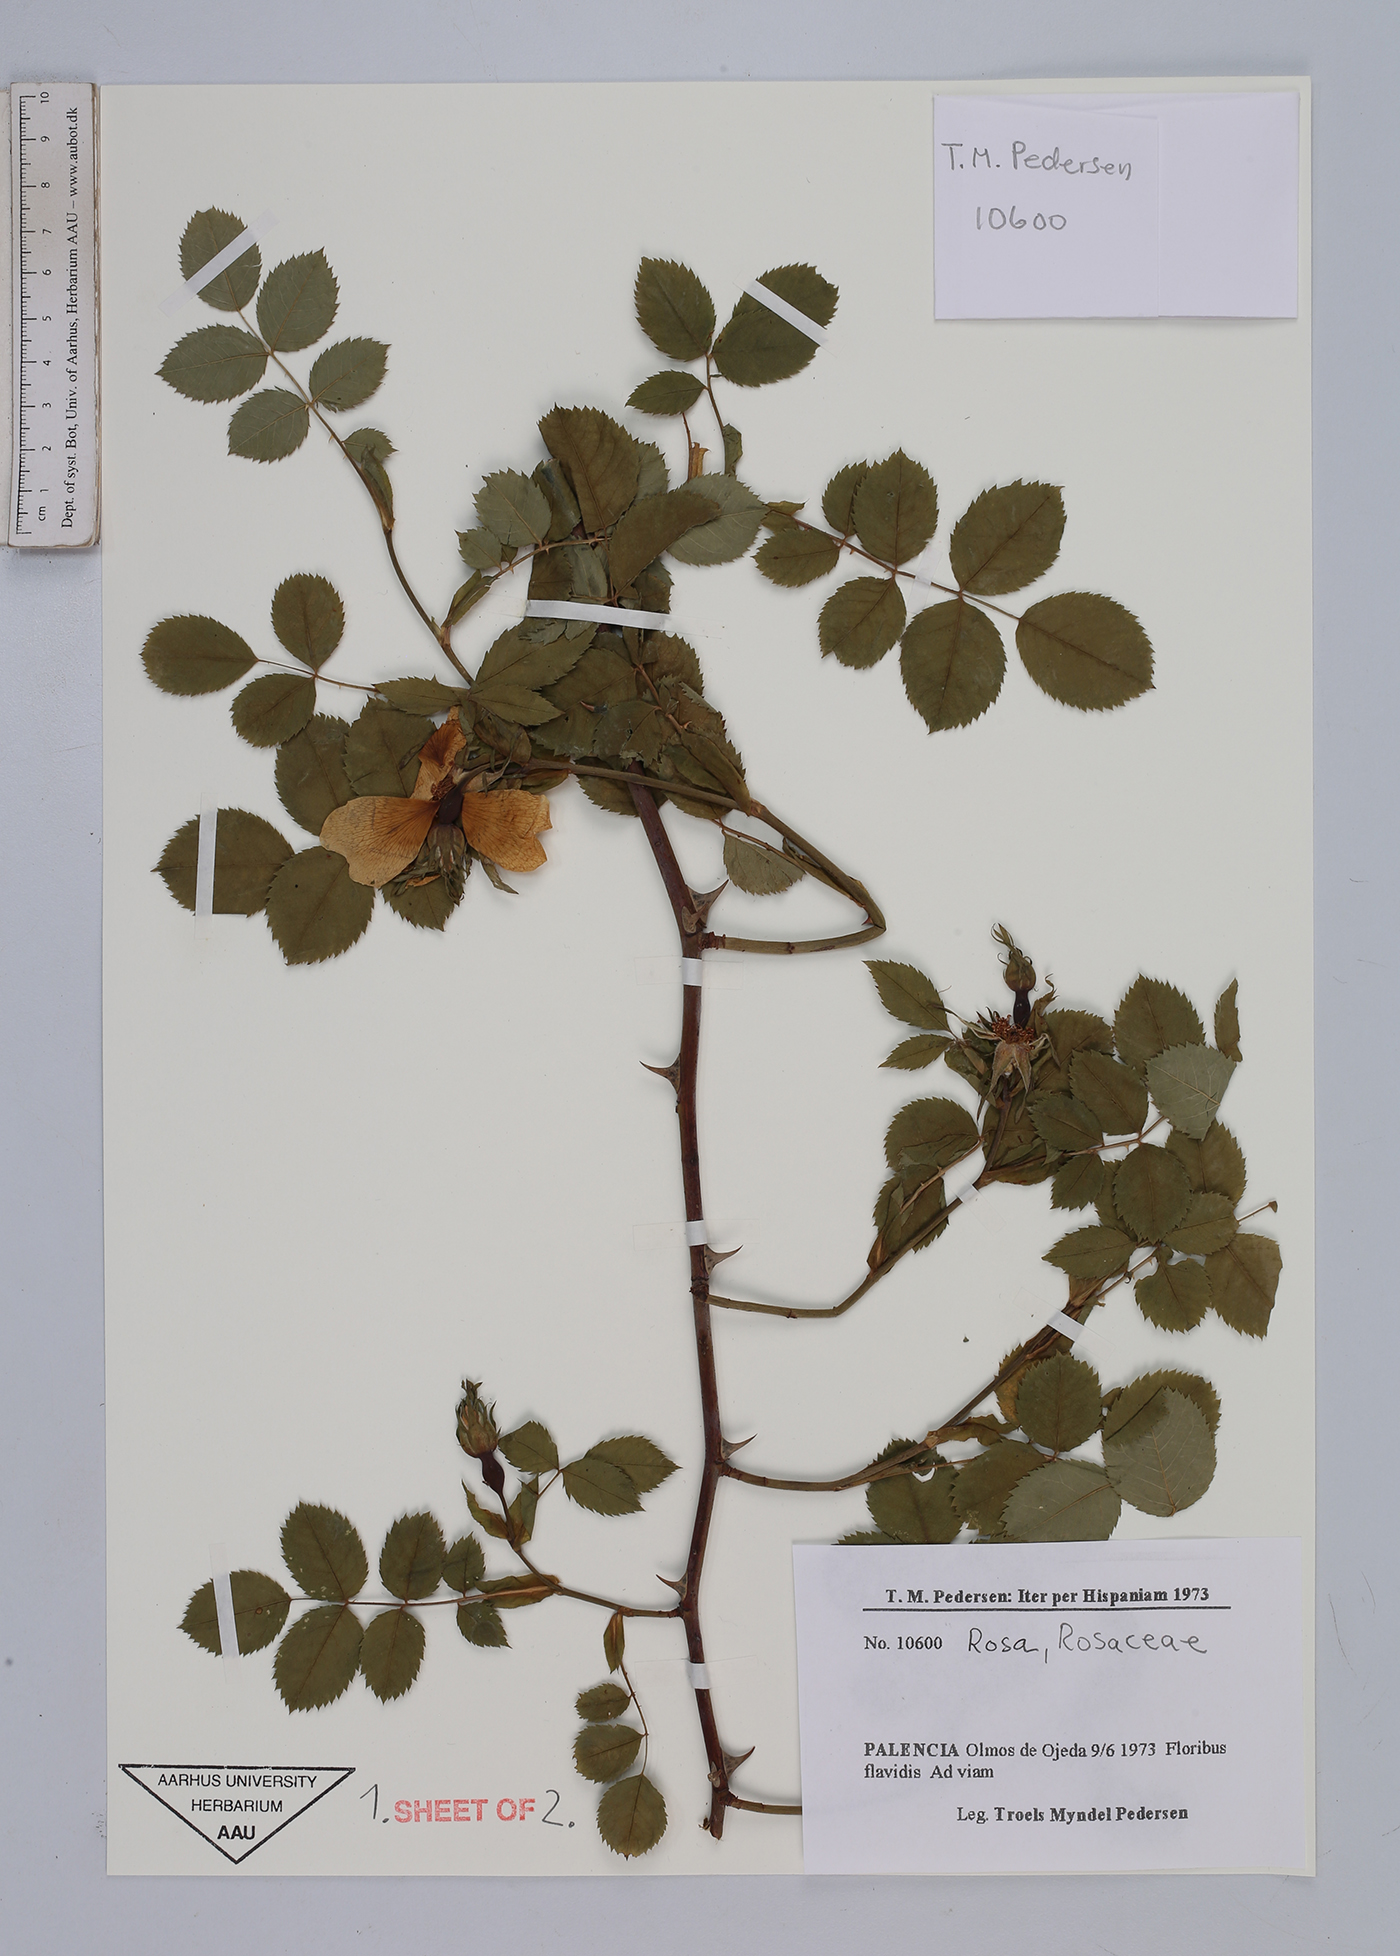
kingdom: Plantae
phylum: Tracheophyta
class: Magnoliopsida
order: Rosales
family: Rosaceae
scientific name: Rosaceae
